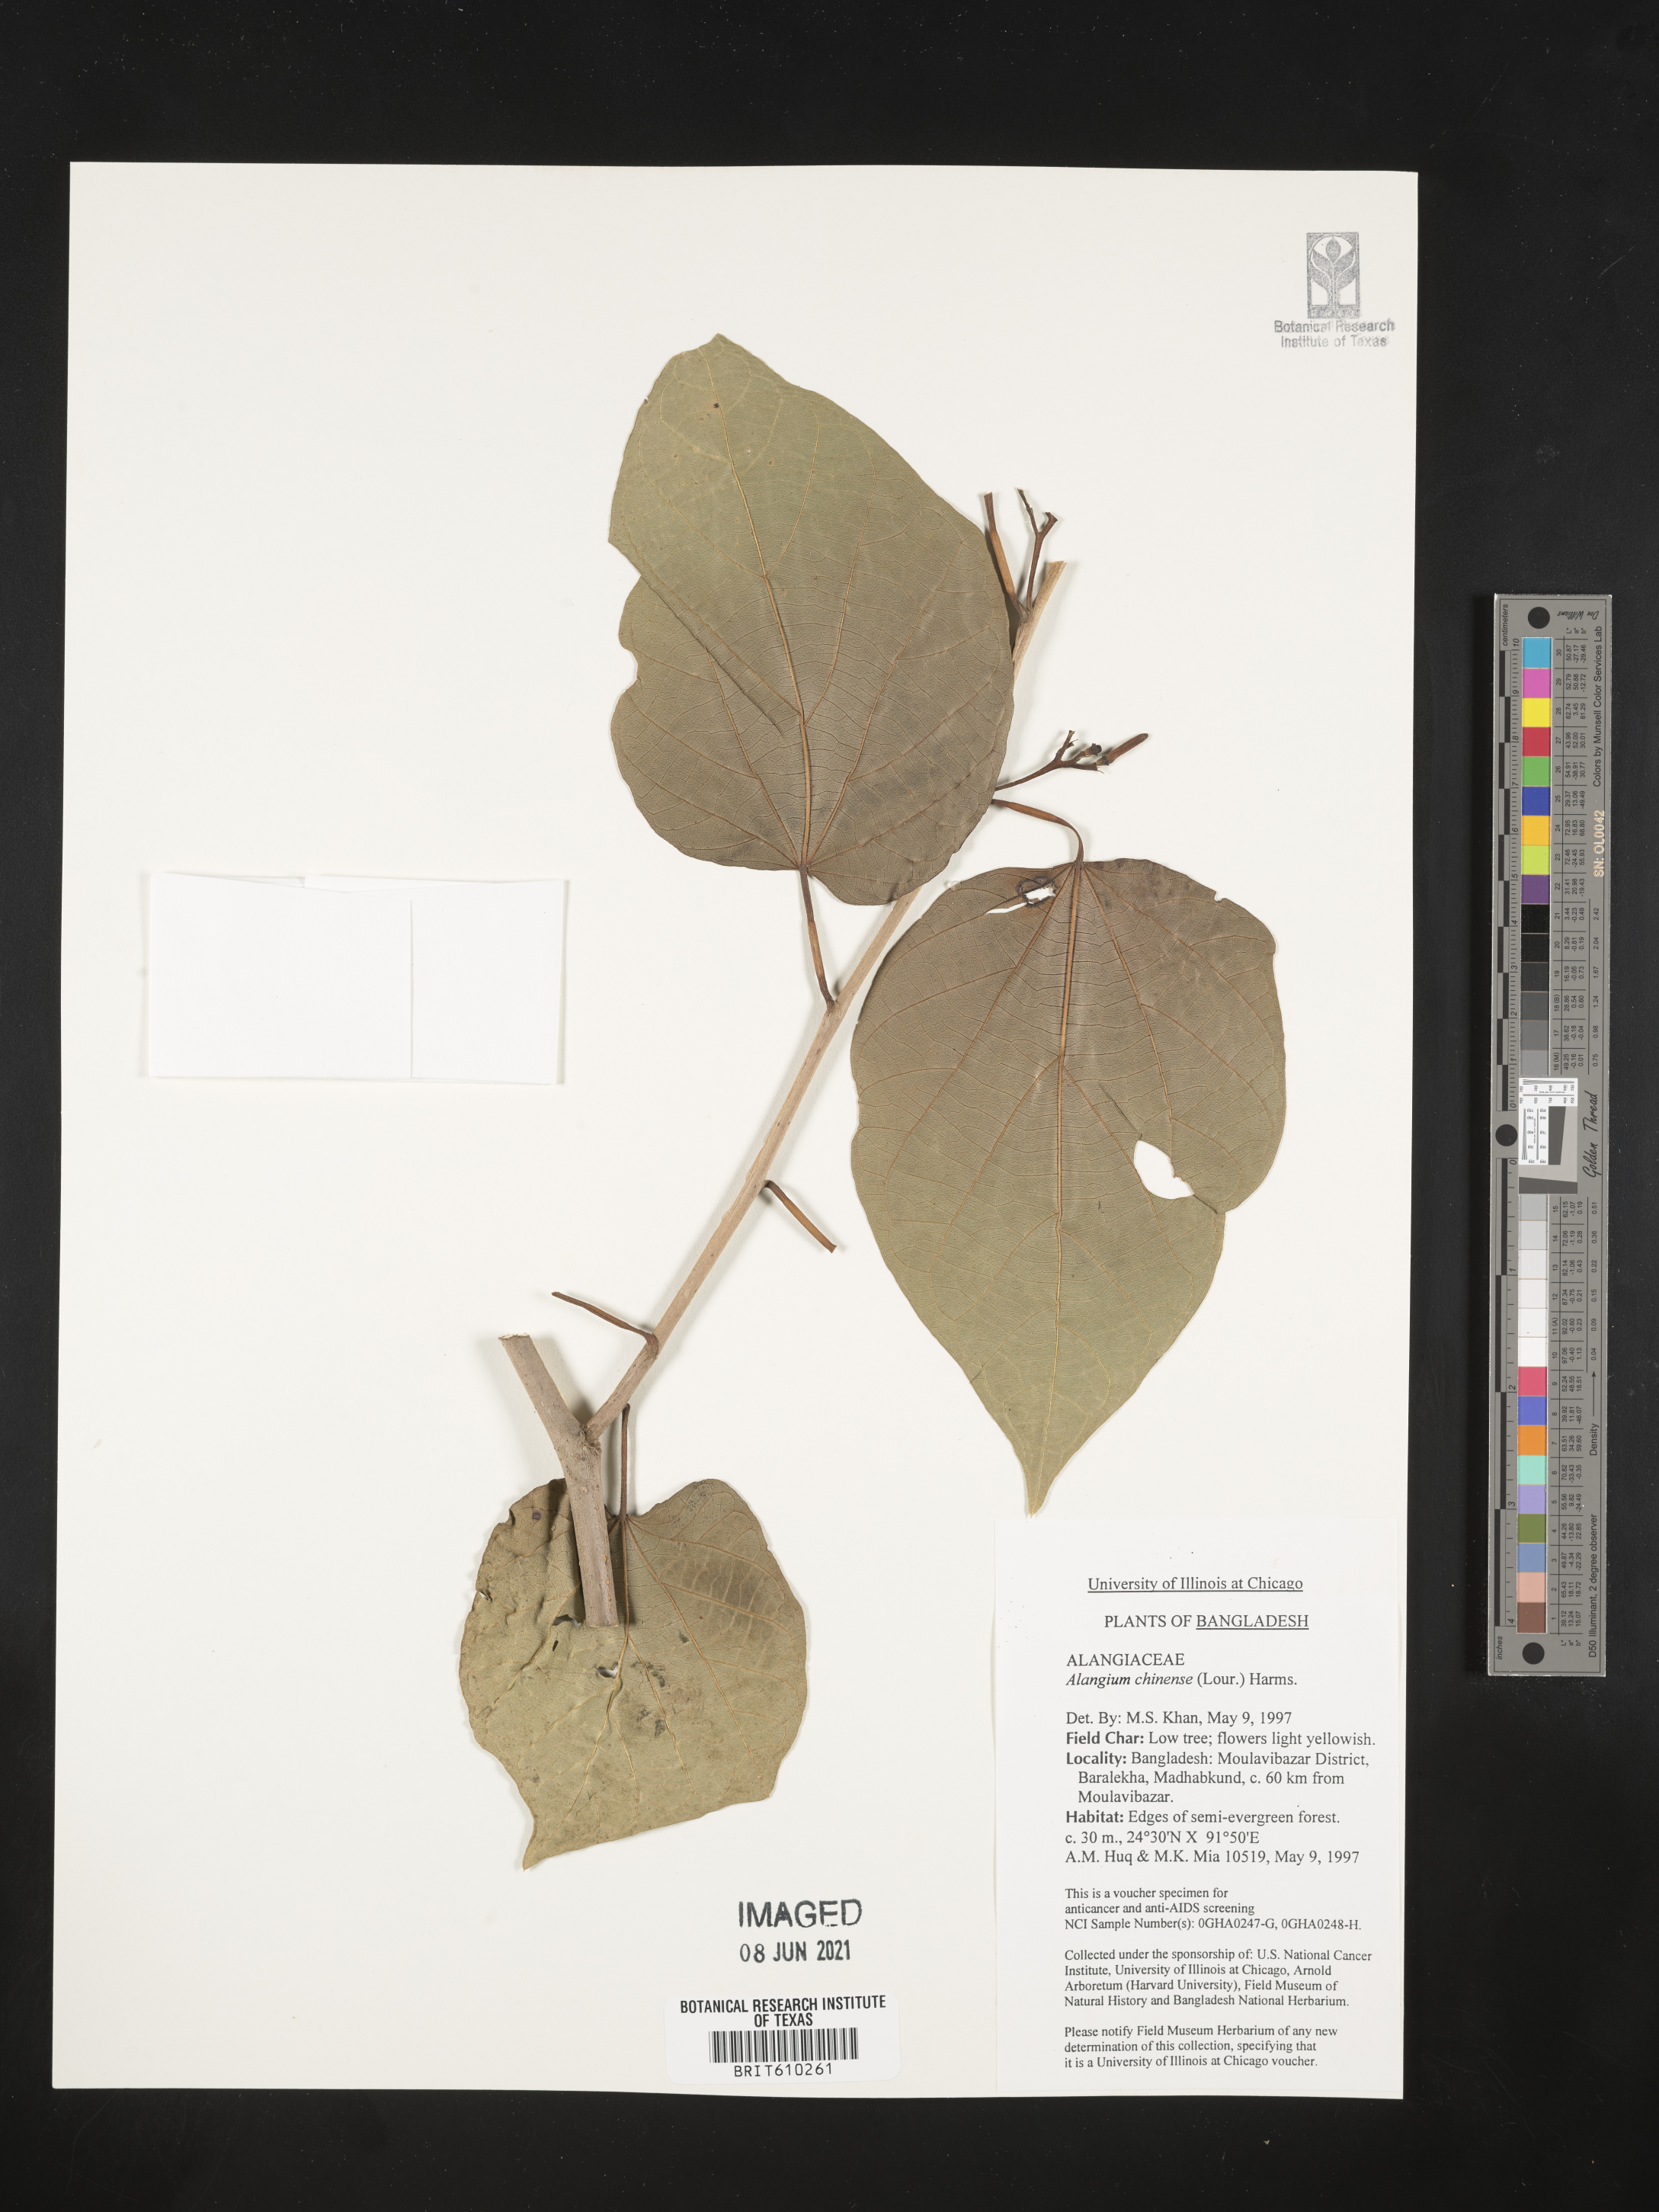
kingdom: Plantae
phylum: Tracheophyta
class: Magnoliopsida
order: Cornales
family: Cornaceae
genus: Alangium
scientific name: Alangium chinense
